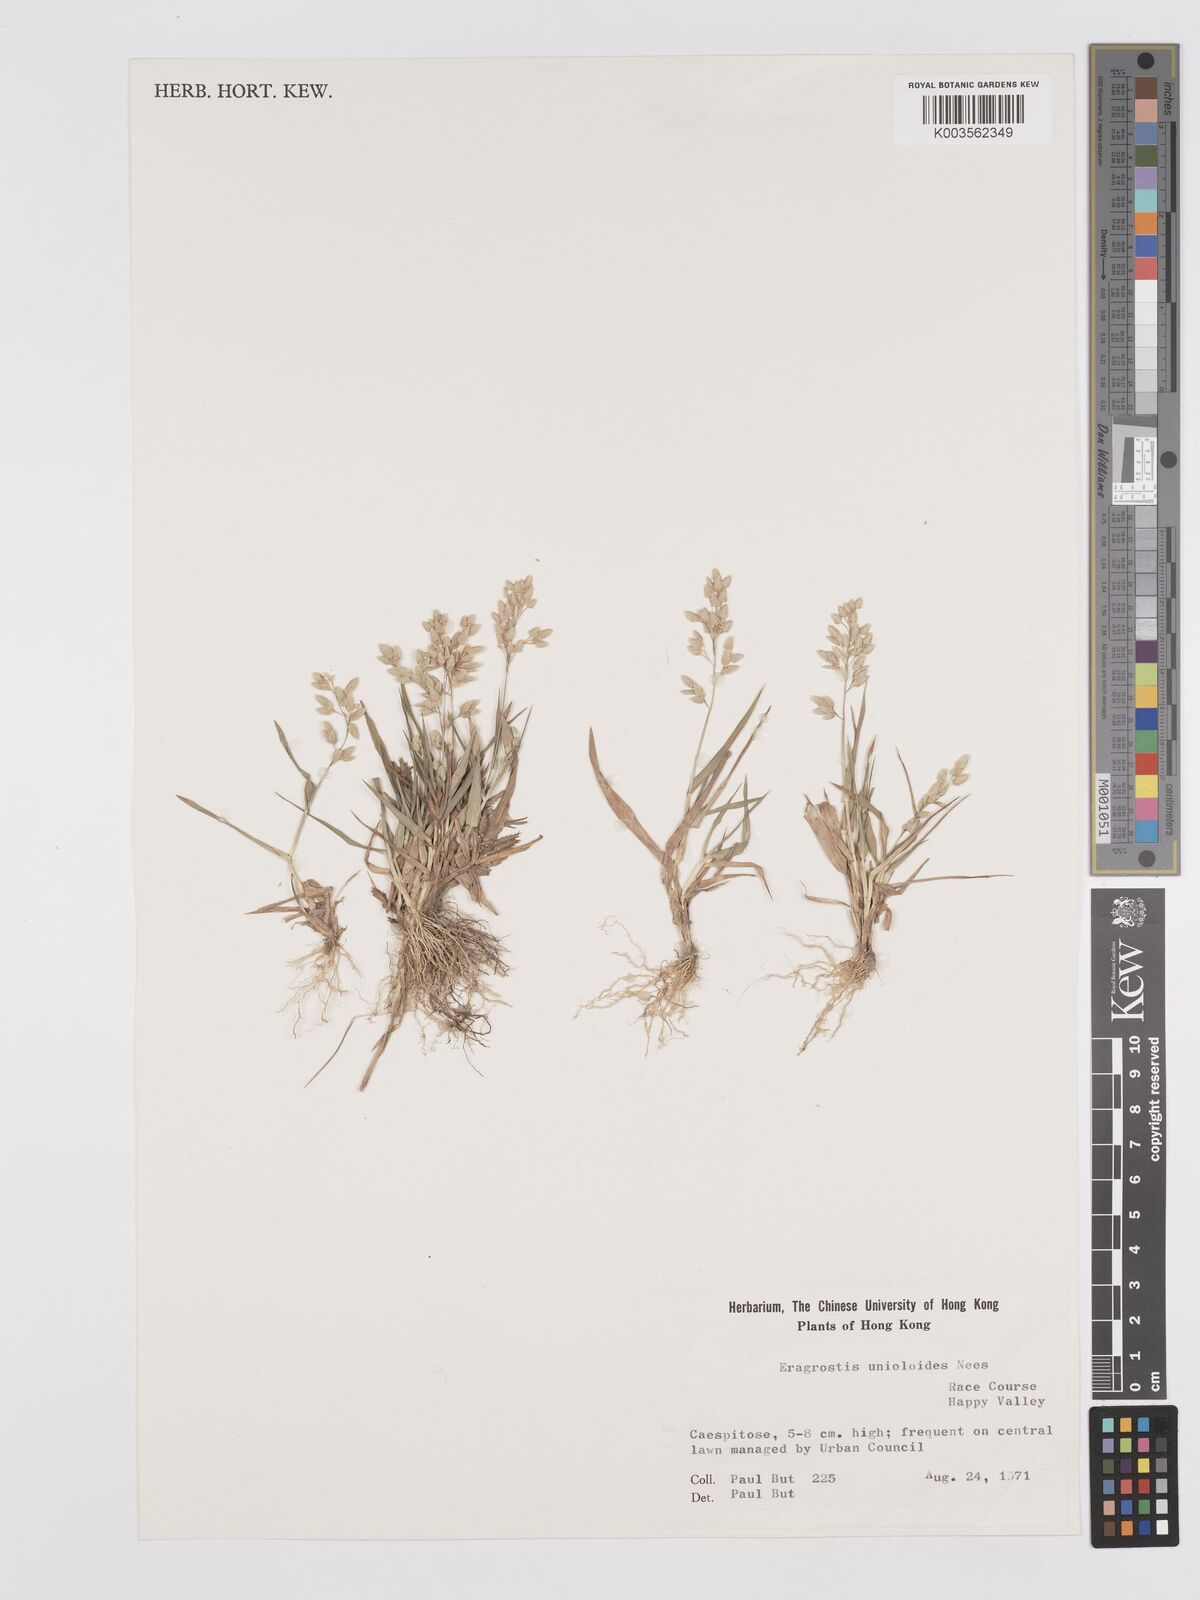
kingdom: Plantae
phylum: Tracheophyta
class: Liliopsida
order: Poales
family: Poaceae
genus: Eragrostis
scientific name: Eragrostis unioloides
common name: Chinese lovegrass
